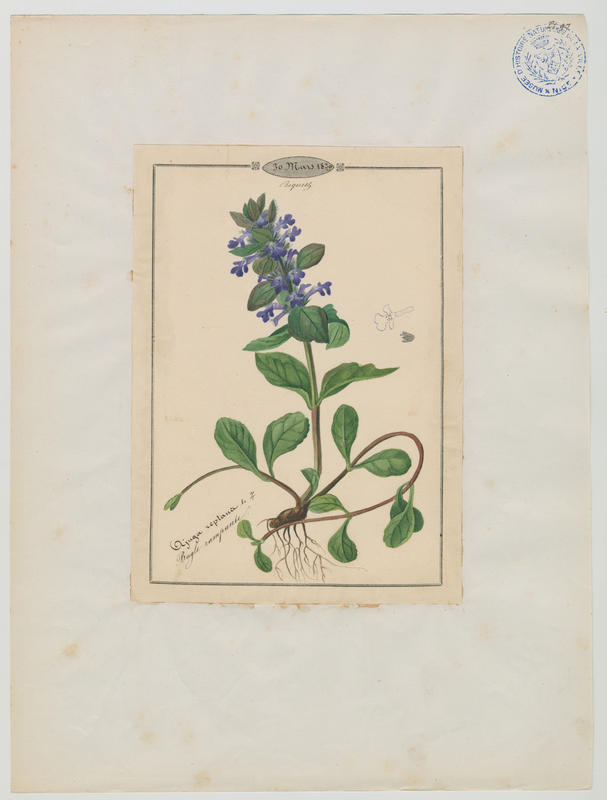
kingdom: Plantae
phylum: Tracheophyta
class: Magnoliopsida
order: Lamiales
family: Lamiaceae
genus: Ajuga
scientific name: Ajuga reptans
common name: Bugle
